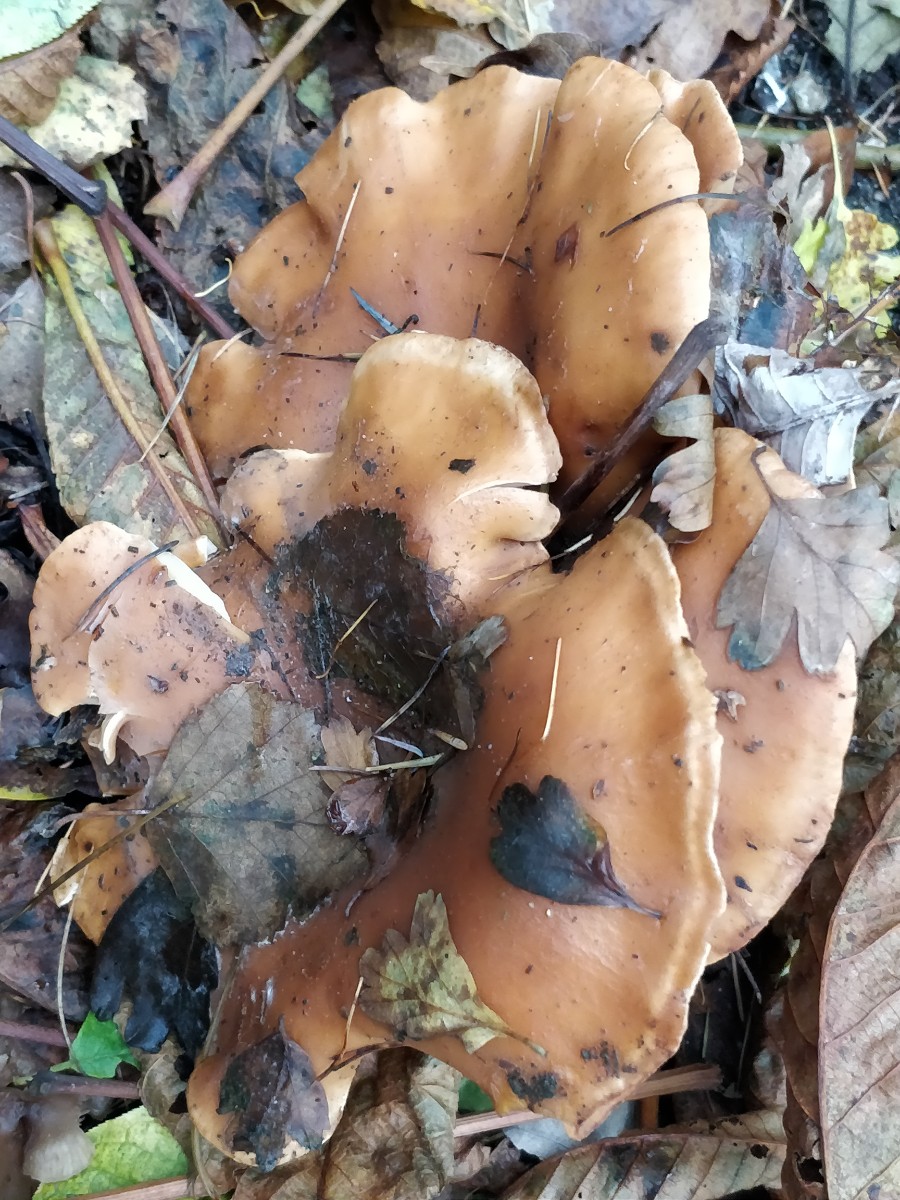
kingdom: Fungi
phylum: Basidiomycota
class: Agaricomycetes
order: Agaricales
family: Tricholomataceae
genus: Paralepista
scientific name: Paralepista flaccida
